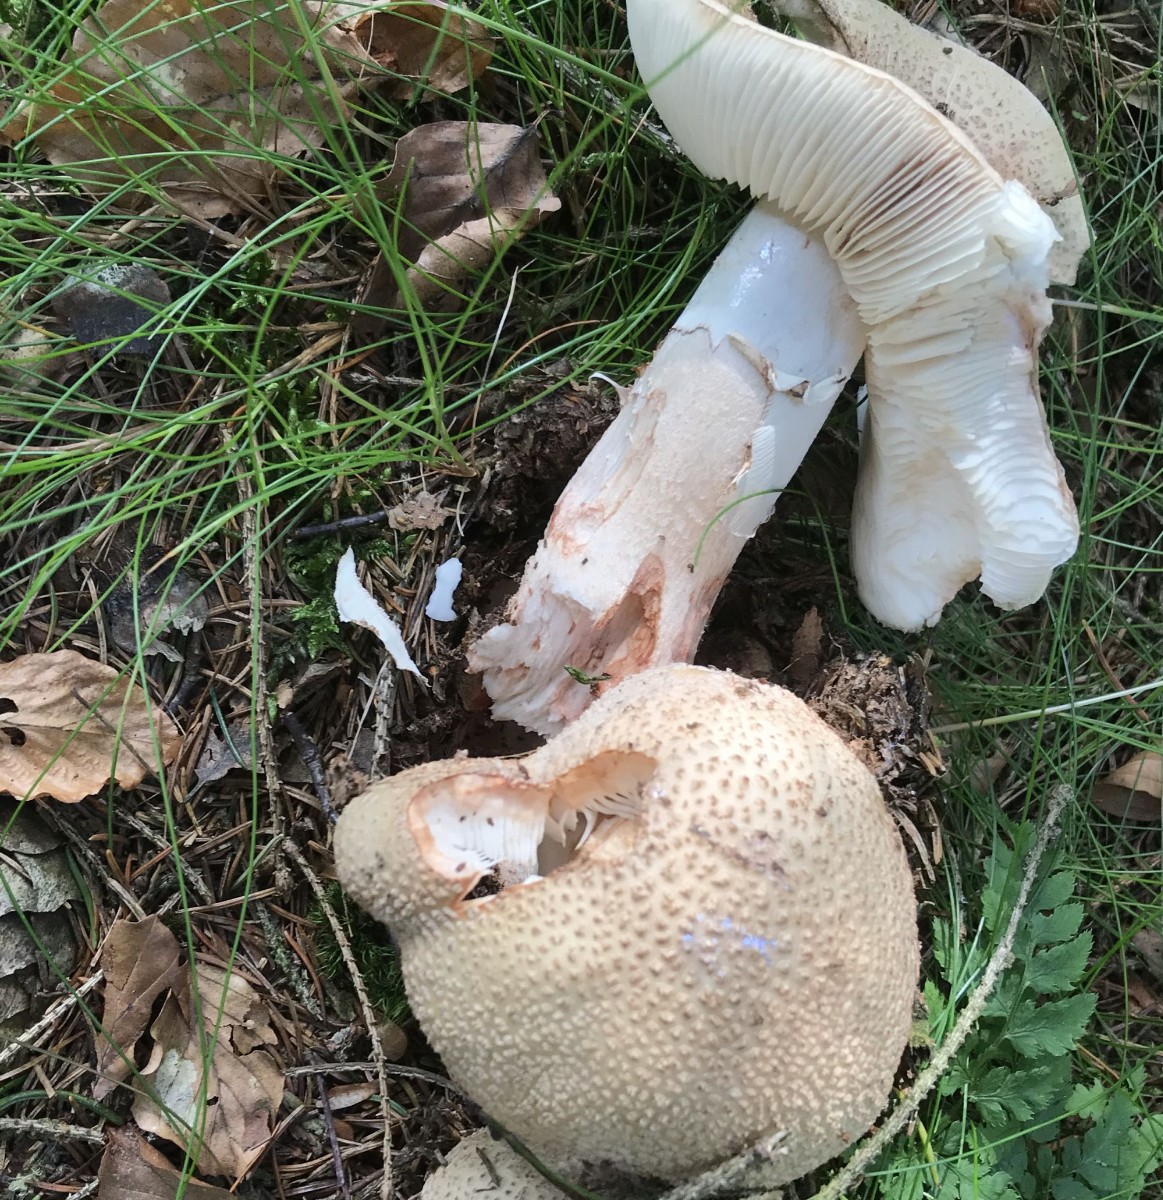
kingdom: Fungi
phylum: Basidiomycota
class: Agaricomycetes
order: Agaricales
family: Amanitaceae
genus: Amanita
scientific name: Amanita rubescens
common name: rødmende fluesvamp
